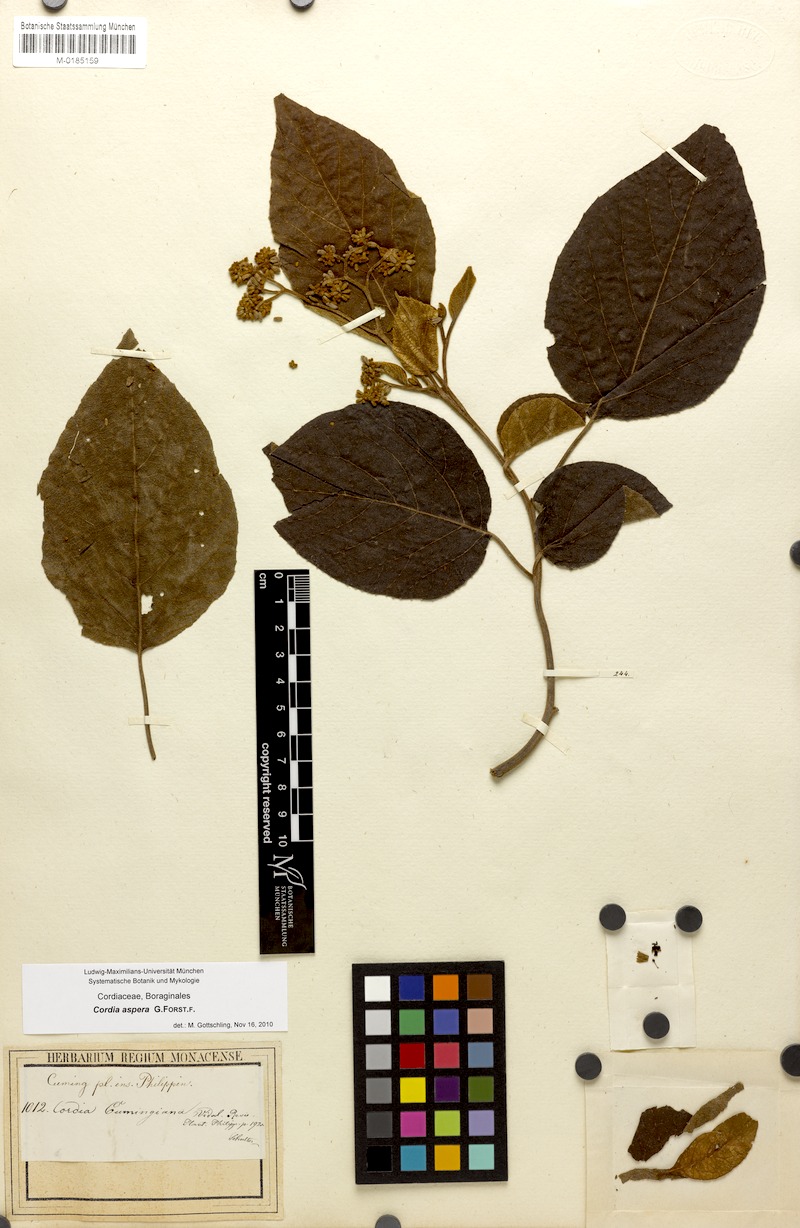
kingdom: Plantae
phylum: Tracheophyta
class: Magnoliopsida
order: Boraginales
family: Cordiaceae
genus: Cordia
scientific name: Cordia aspera
